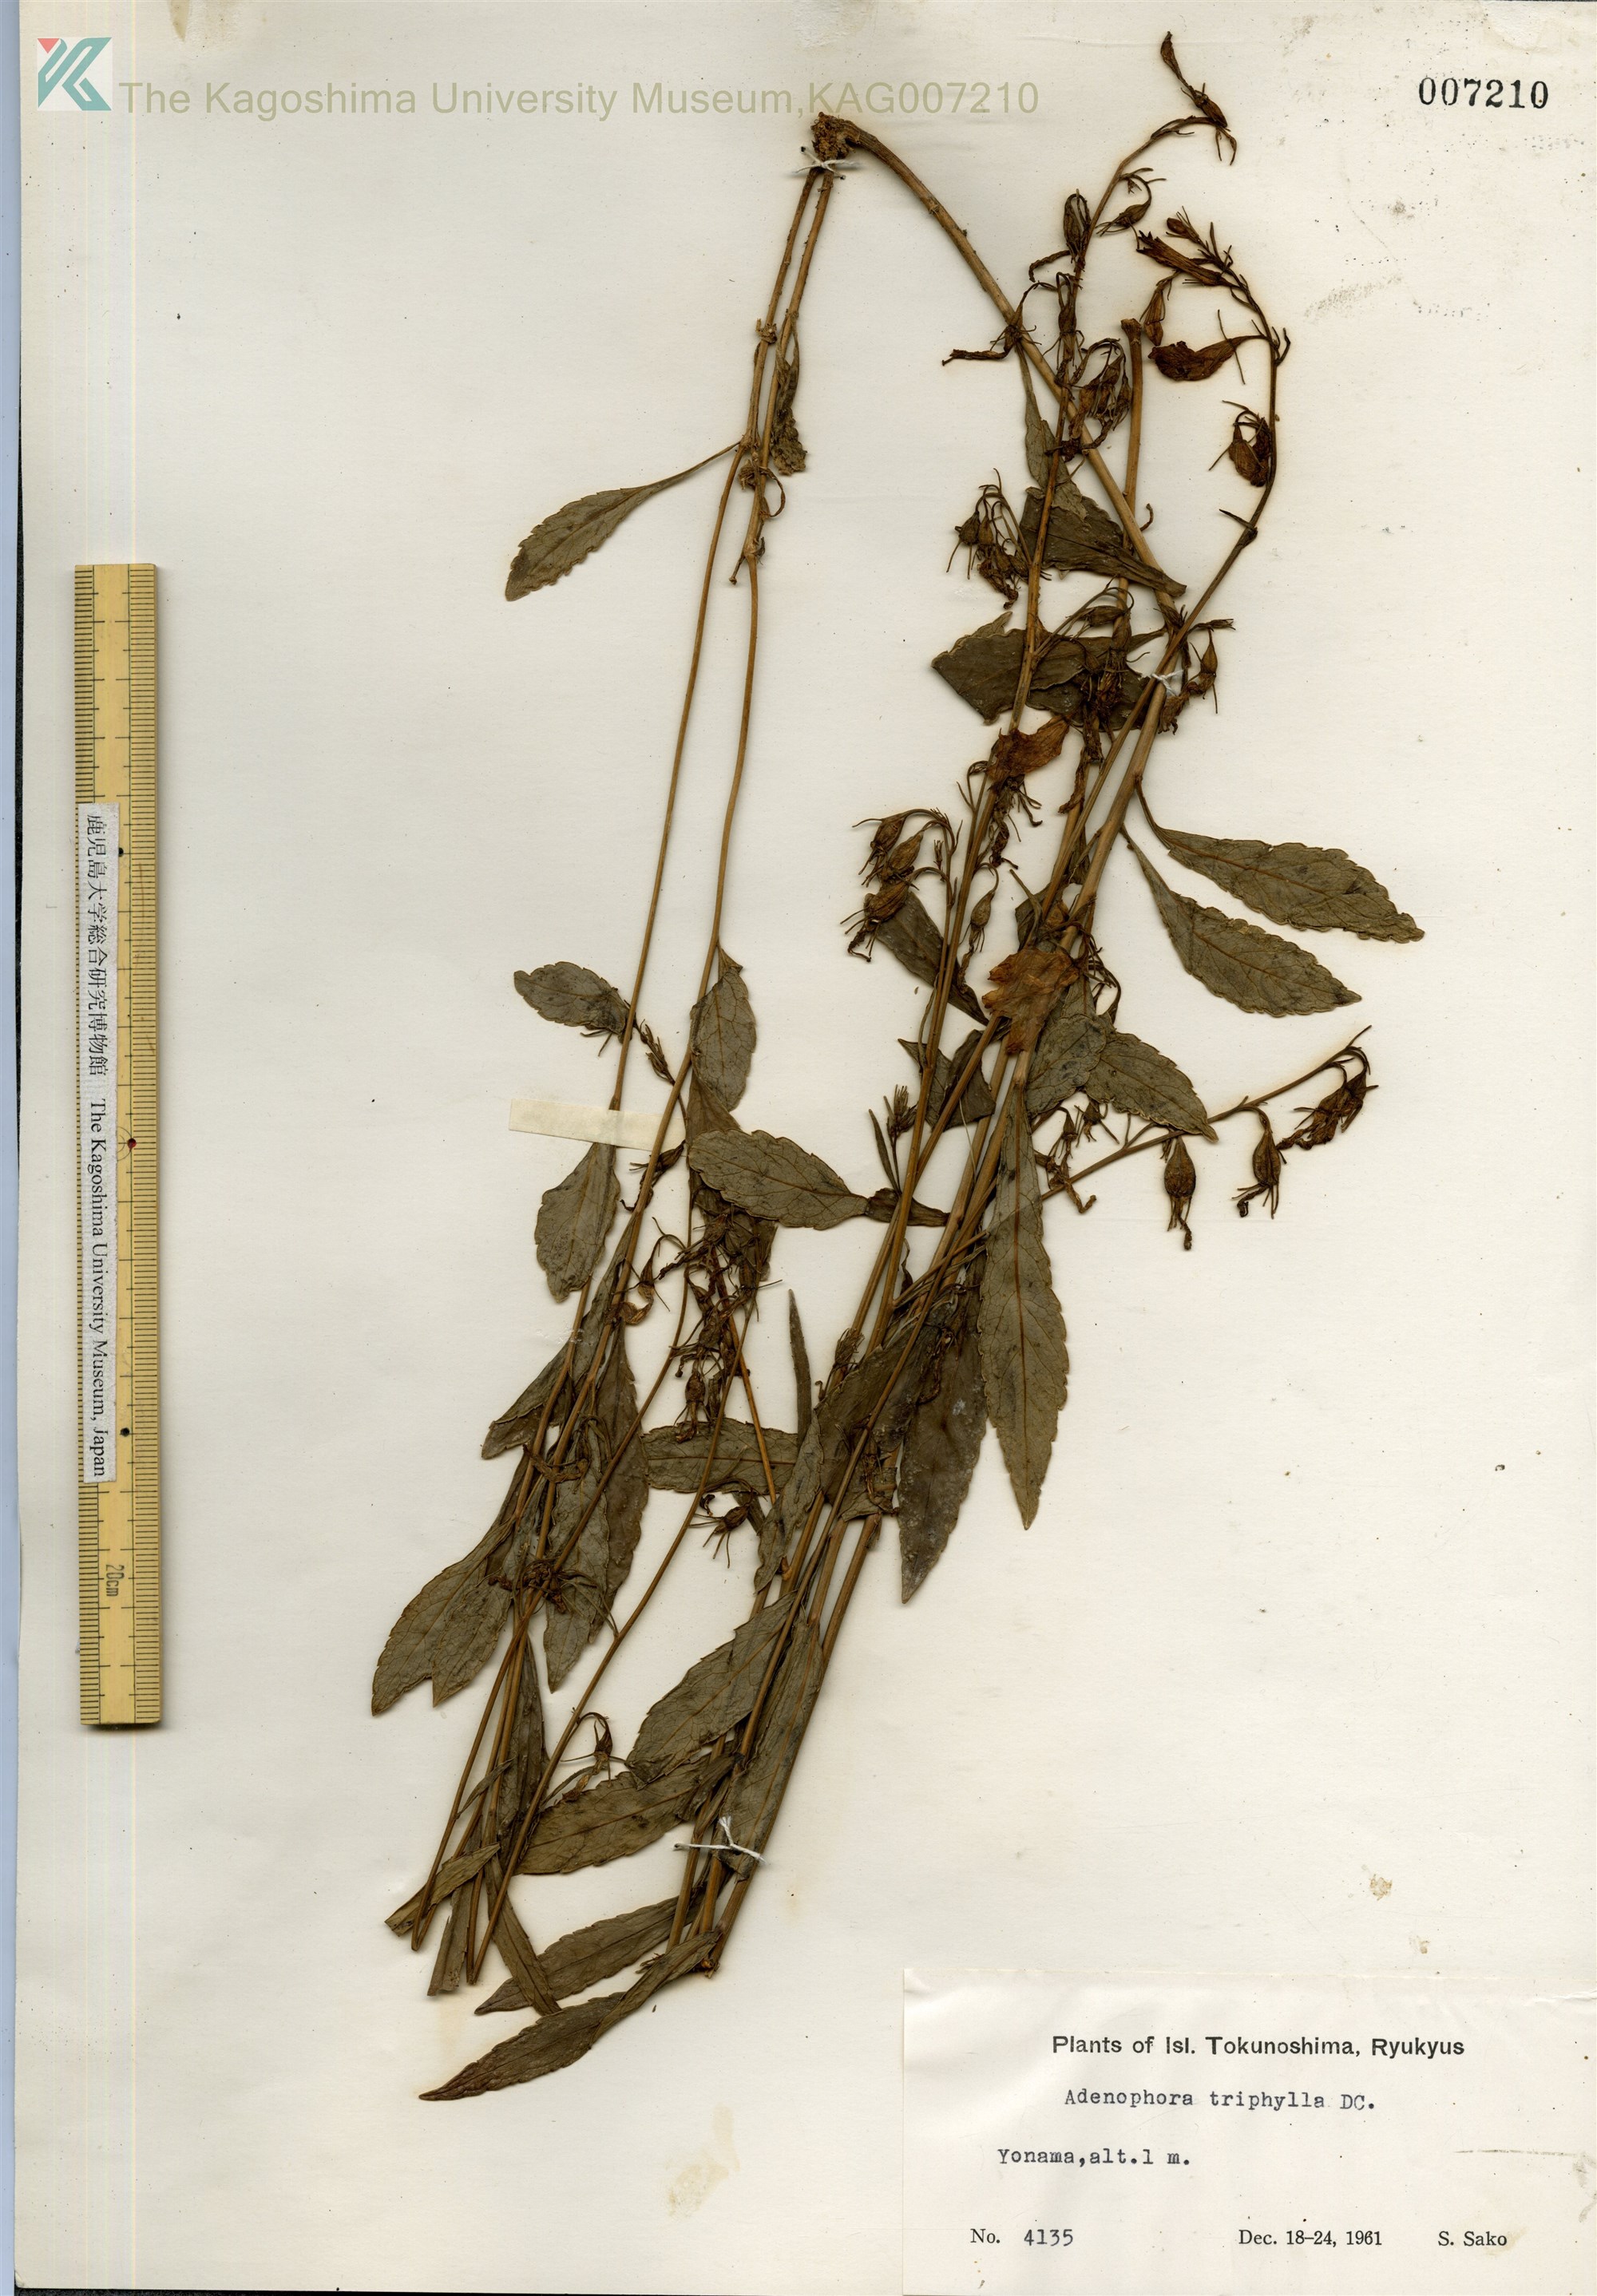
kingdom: Plantae
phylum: Tracheophyta
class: Magnoliopsida
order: Asterales
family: Campanulaceae
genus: Adenophora
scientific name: Adenophora tashiroi
